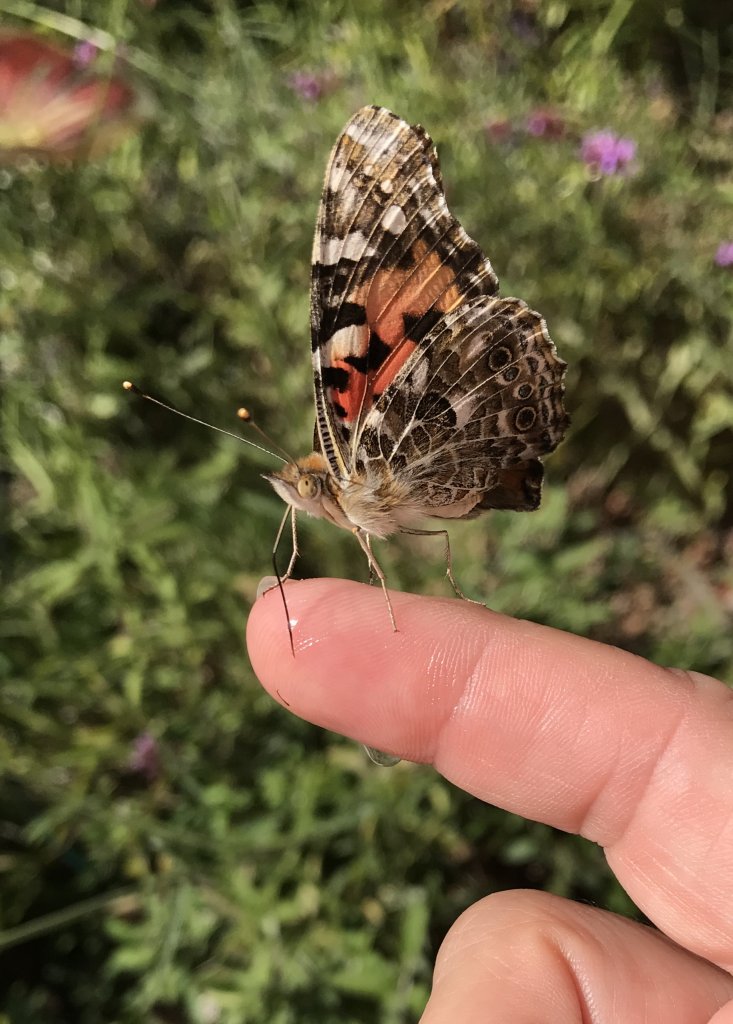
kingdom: Animalia
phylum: Arthropoda
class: Insecta
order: Lepidoptera
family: Nymphalidae
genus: Vanessa
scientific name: Vanessa cardui
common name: Painted Lady
